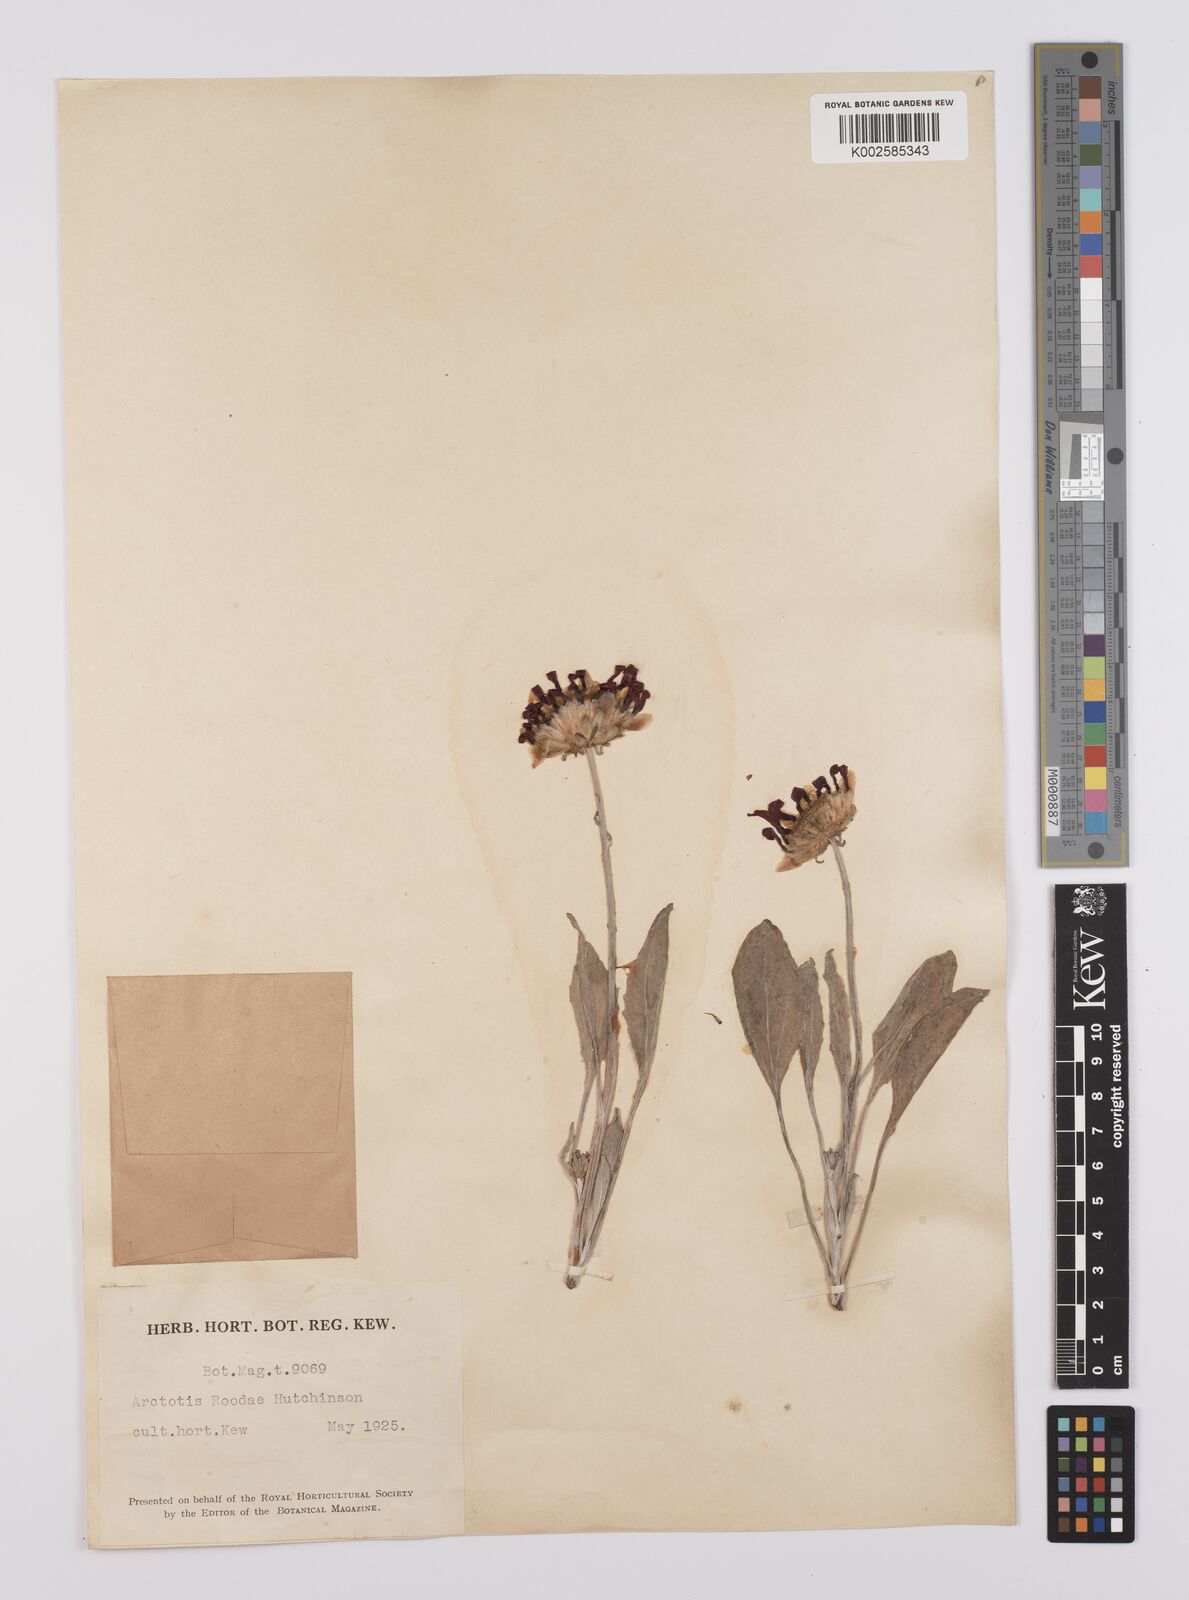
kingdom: Plantae
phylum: Tracheophyta
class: Magnoliopsida
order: Asterales
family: Asteraceae
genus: Arctotheca
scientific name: Arctotheca calendula
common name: Capeweed
